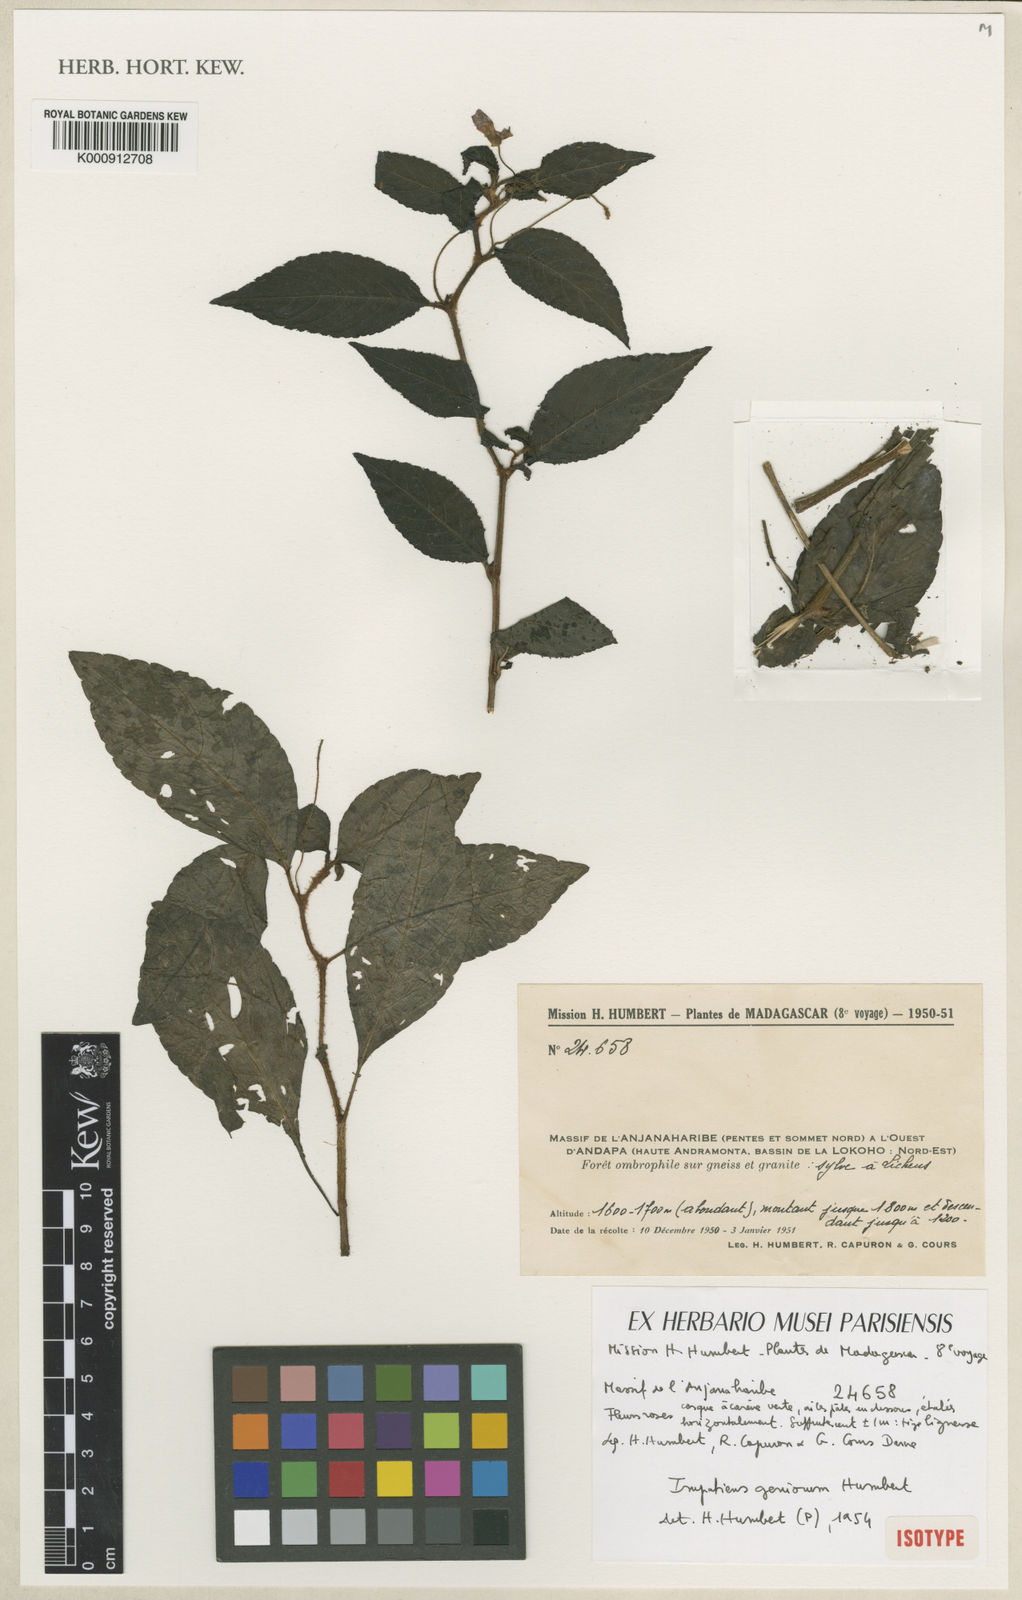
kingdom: Plantae
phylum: Tracheophyta
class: Magnoliopsida
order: Ericales
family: Balsaminaceae
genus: Impatiens
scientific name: Impatiens geniorum
